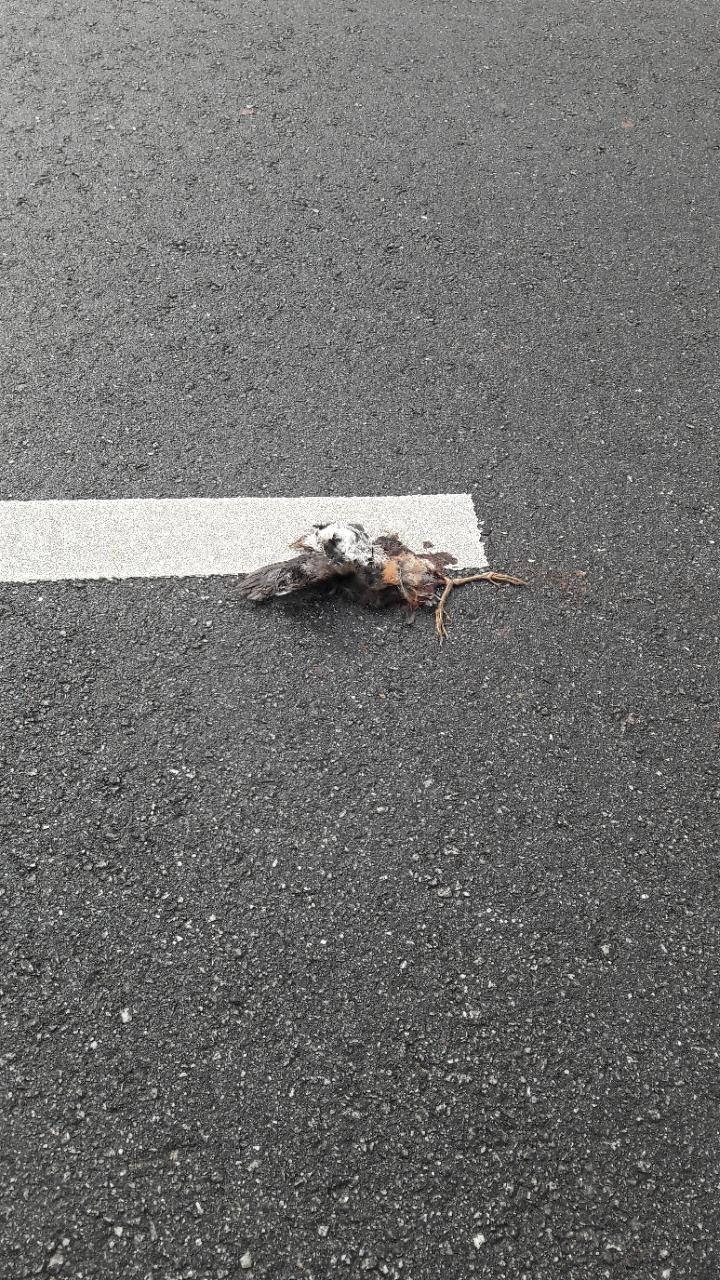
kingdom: Animalia
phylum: Chordata
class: Aves
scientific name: Aves
